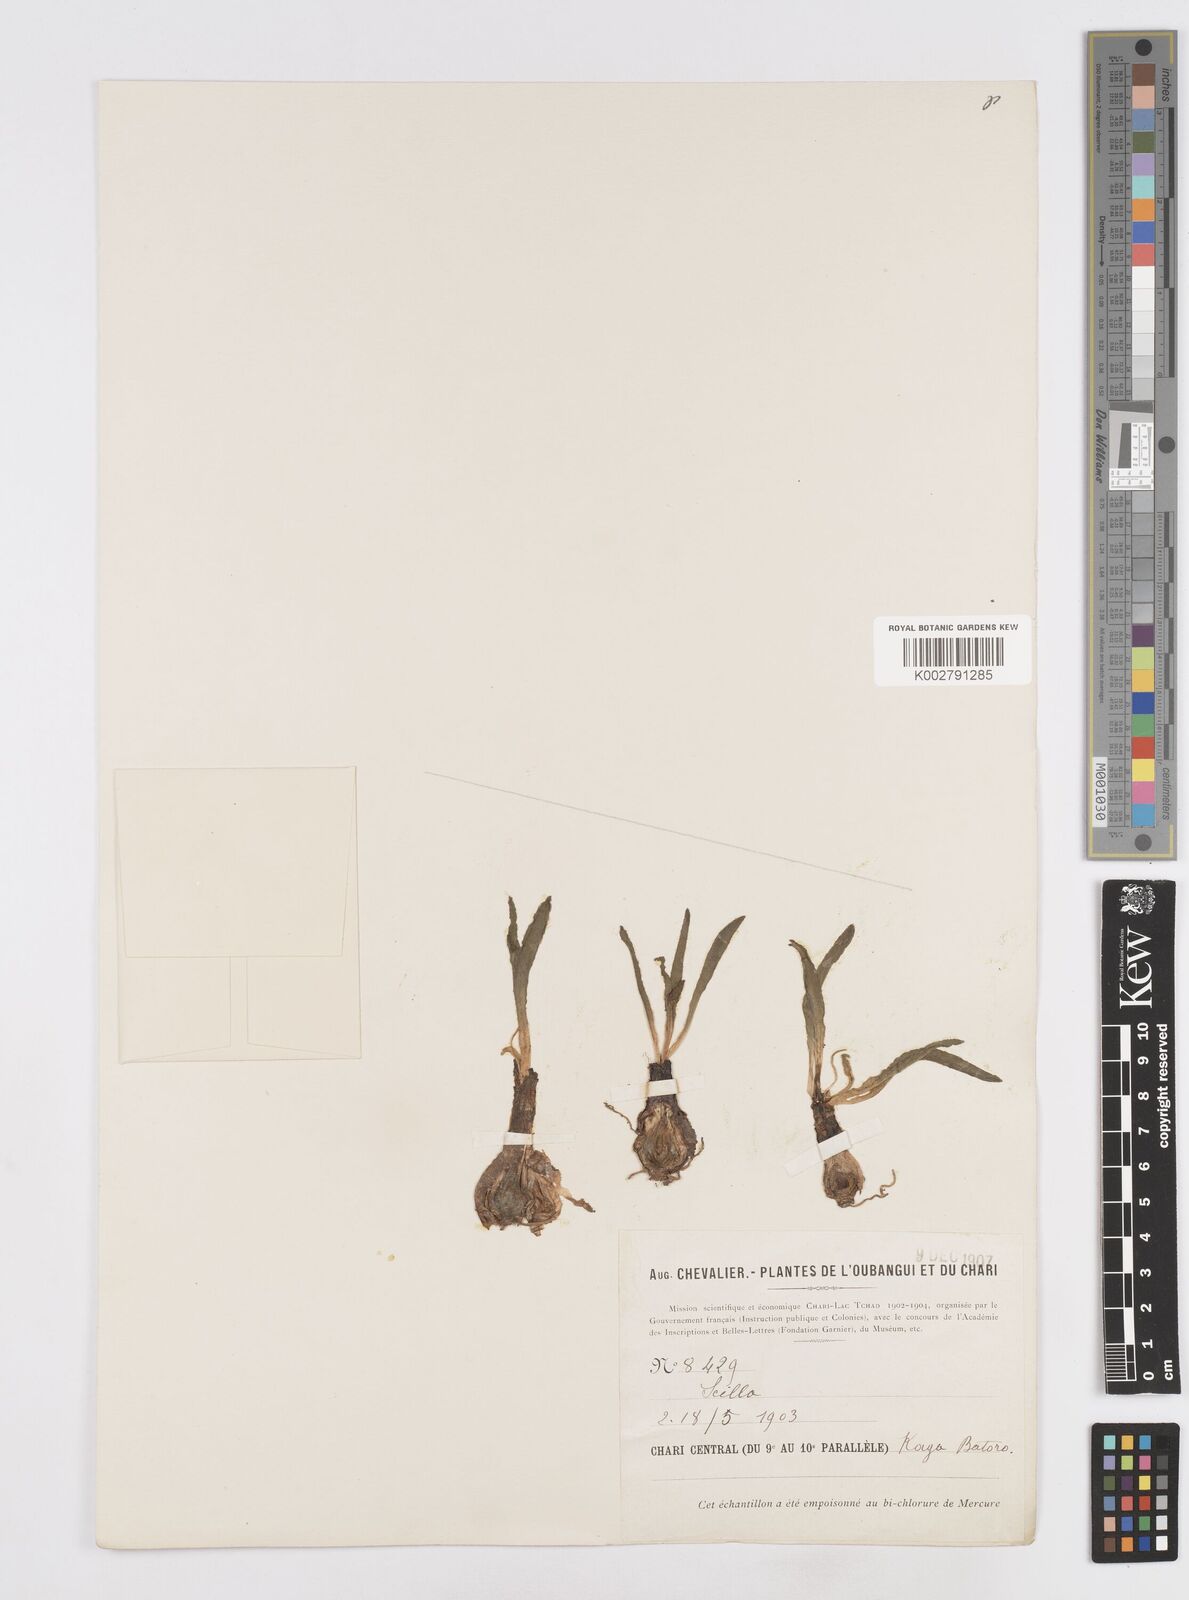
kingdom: Plantae
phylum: Tracheophyta
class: Liliopsida
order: Asparagales
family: Asparagaceae
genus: Scilla
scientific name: Scilla
